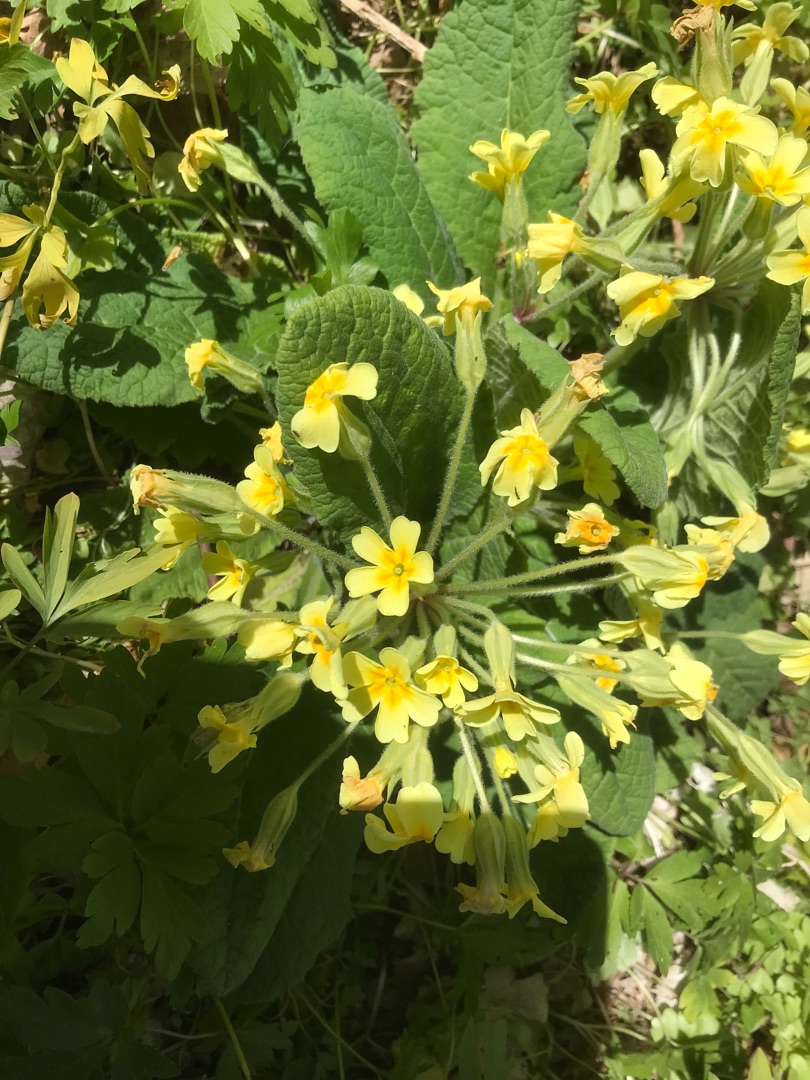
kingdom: Plantae
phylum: Tracheophyta
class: Magnoliopsida
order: Ericales
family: Primulaceae
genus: Primula
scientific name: Primula elatior
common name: Fladkravet kodriver
